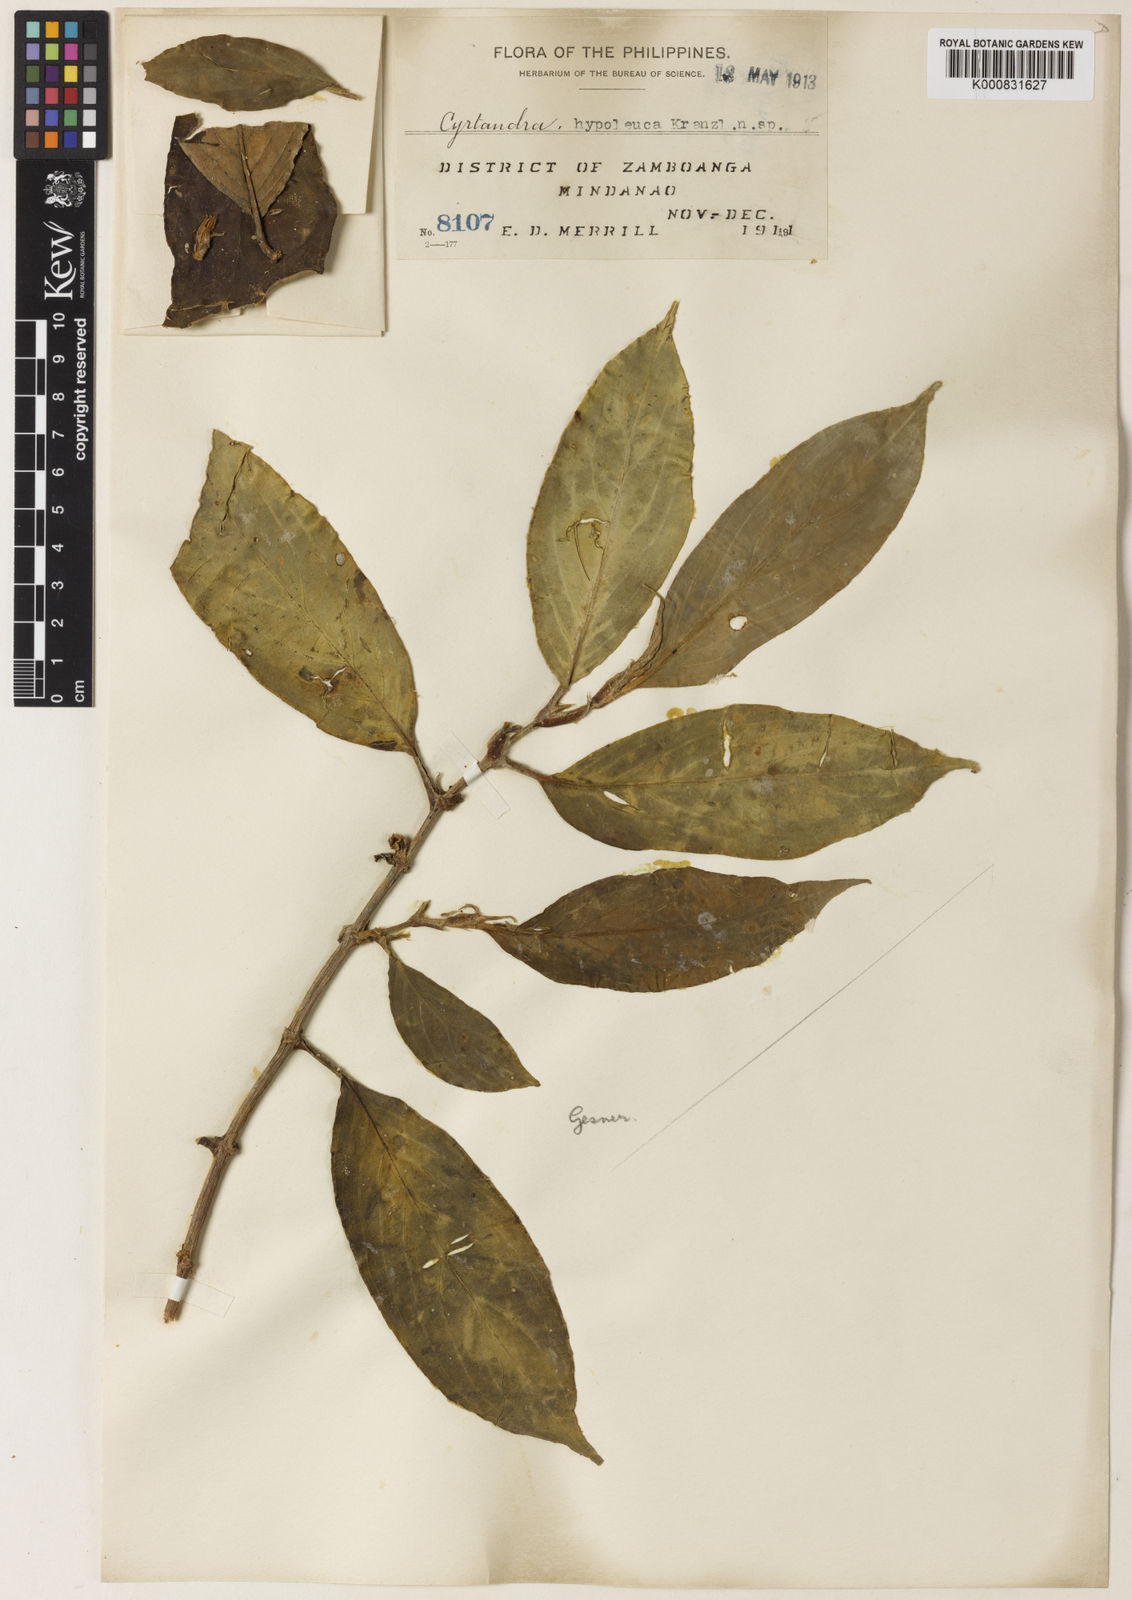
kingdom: Plantae
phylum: Tracheophyta
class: Magnoliopsida
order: Lamiales
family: Gesneriaceae
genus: Cyrtandra
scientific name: Cyrtandra hypoleuca
